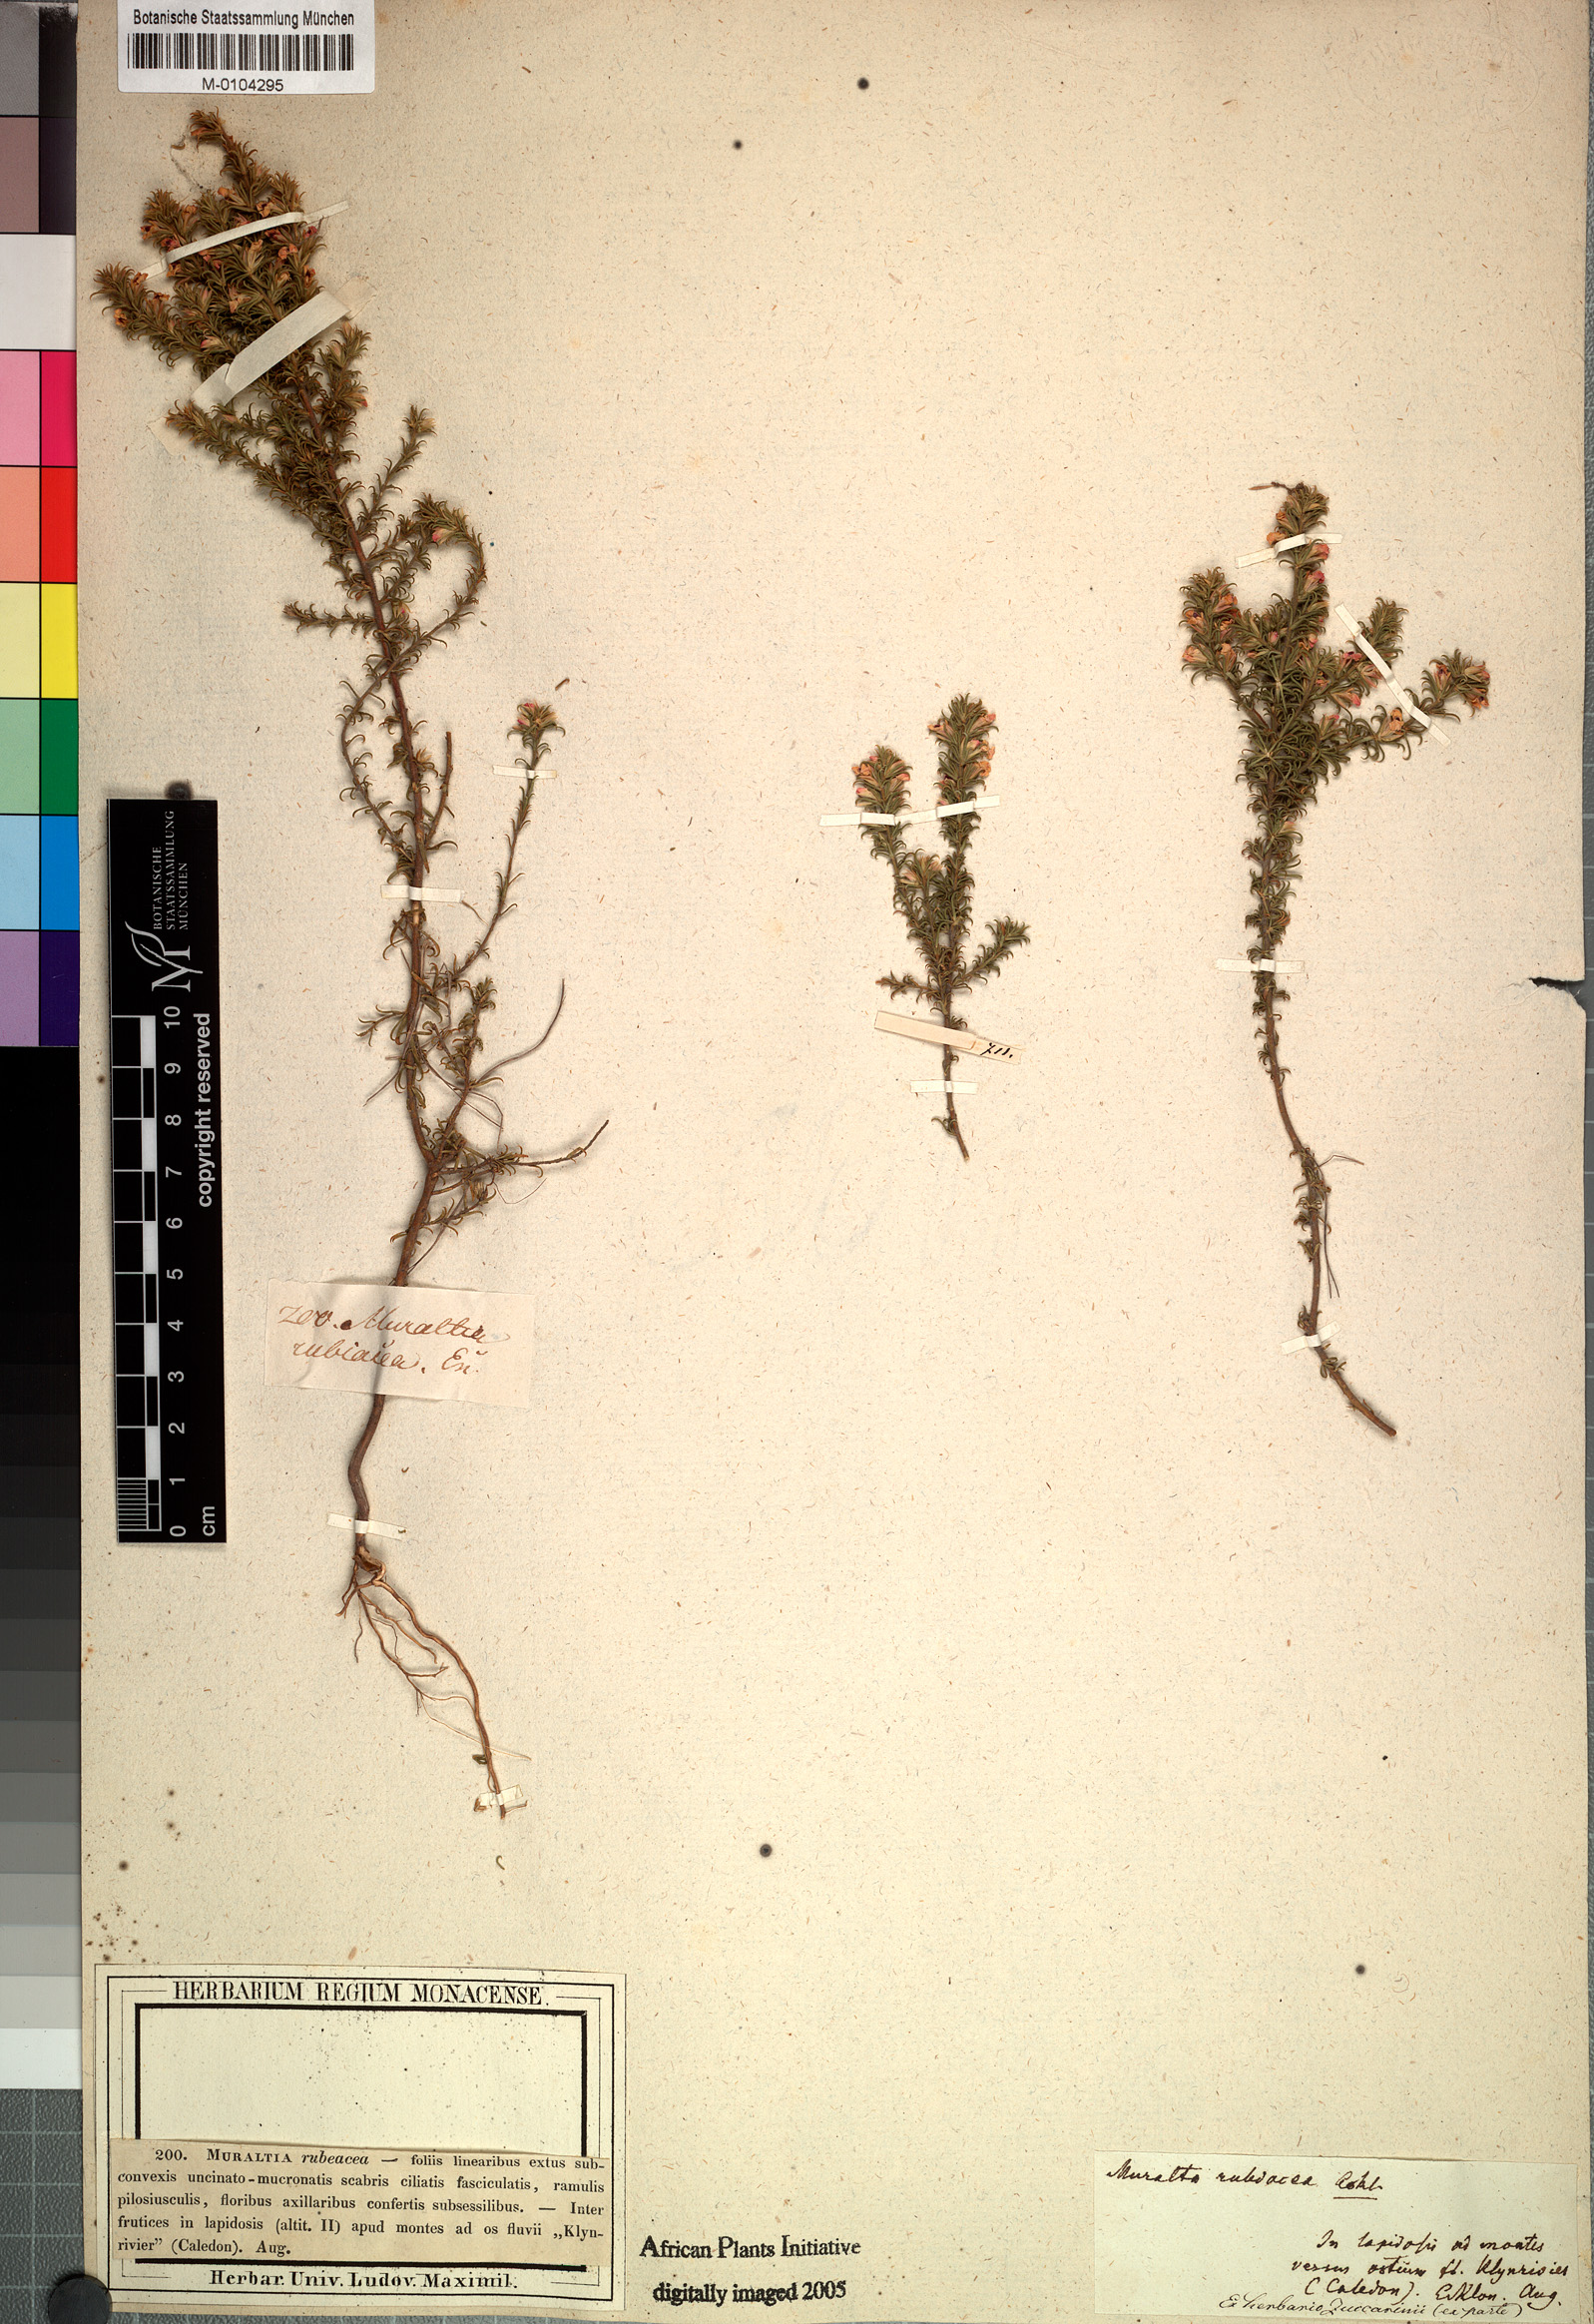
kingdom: Plantae
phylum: Tracheophyta
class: Magnoliopsida
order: Fabales
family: Polygalaceae
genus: Muraltia
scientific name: Muraltia rubeacea
